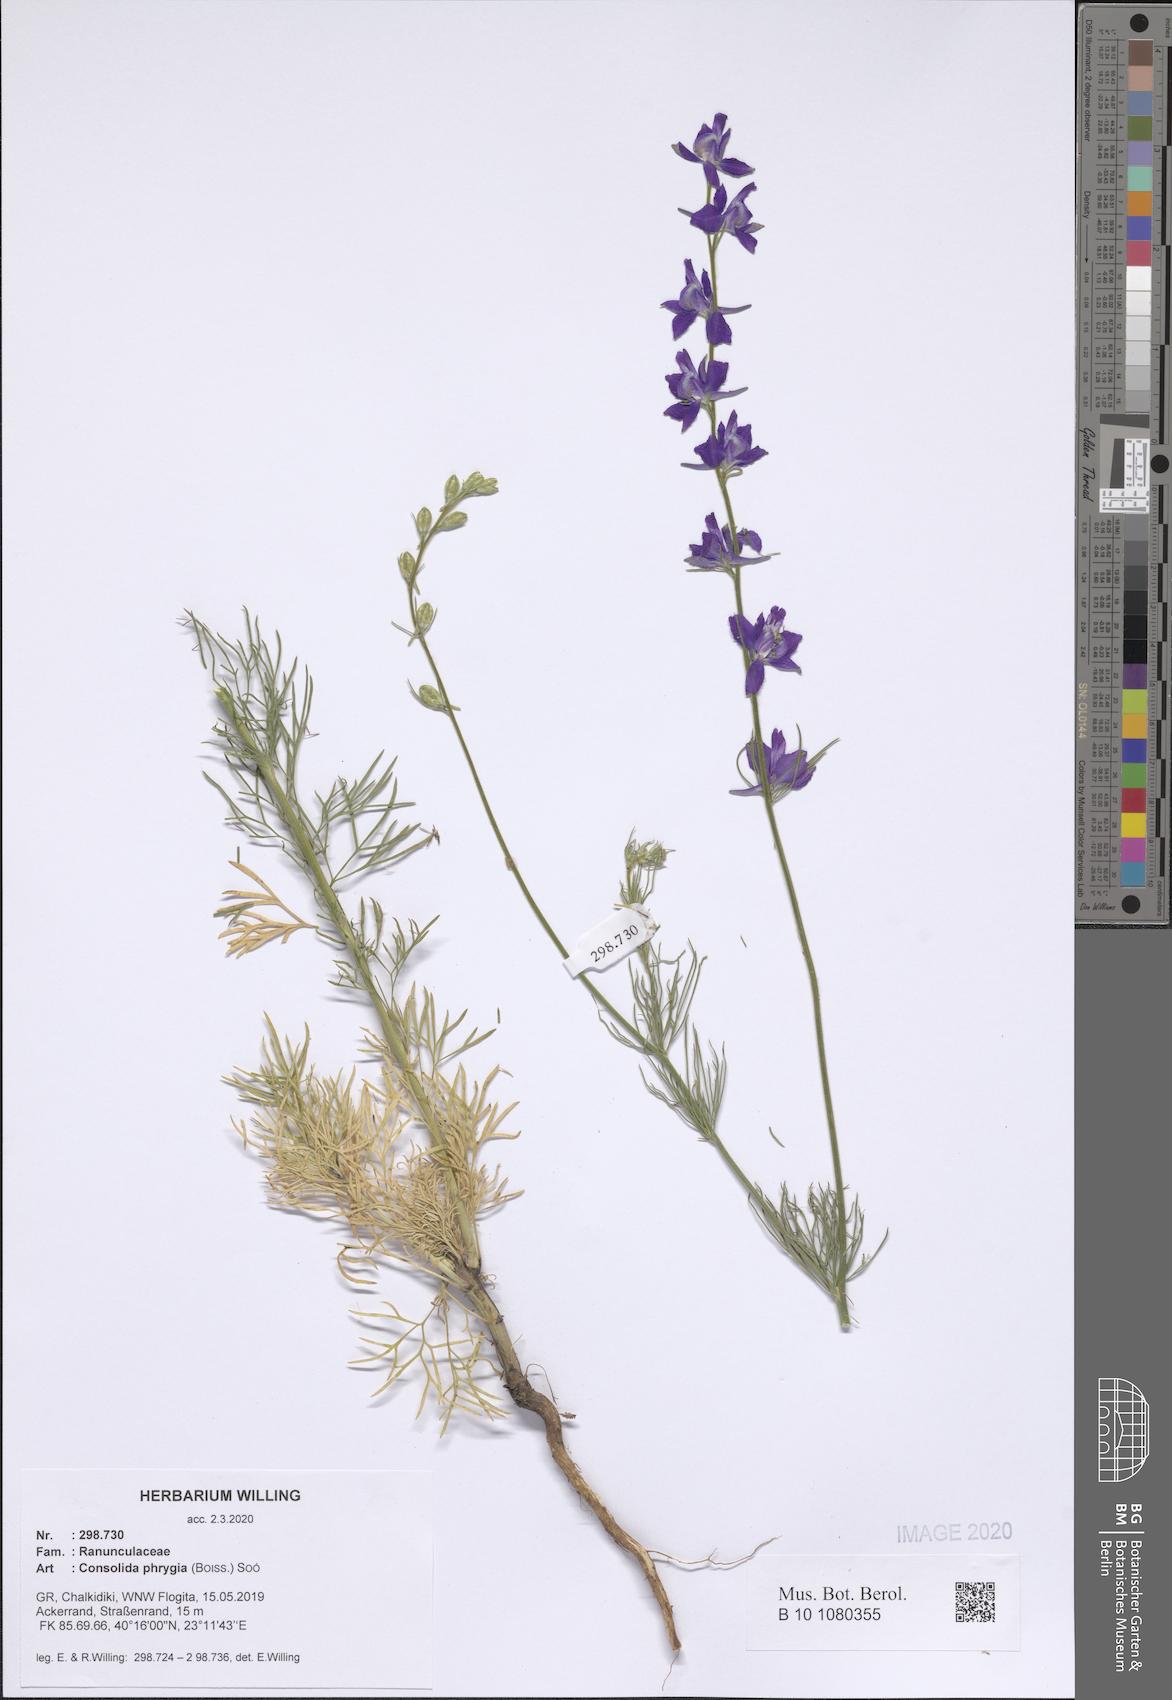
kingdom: Plantae
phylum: Tracheophyta
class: Magnoliopsida
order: Ranunculales
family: Ranunculaceae
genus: Delphinium
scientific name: Delphinium phrygium
